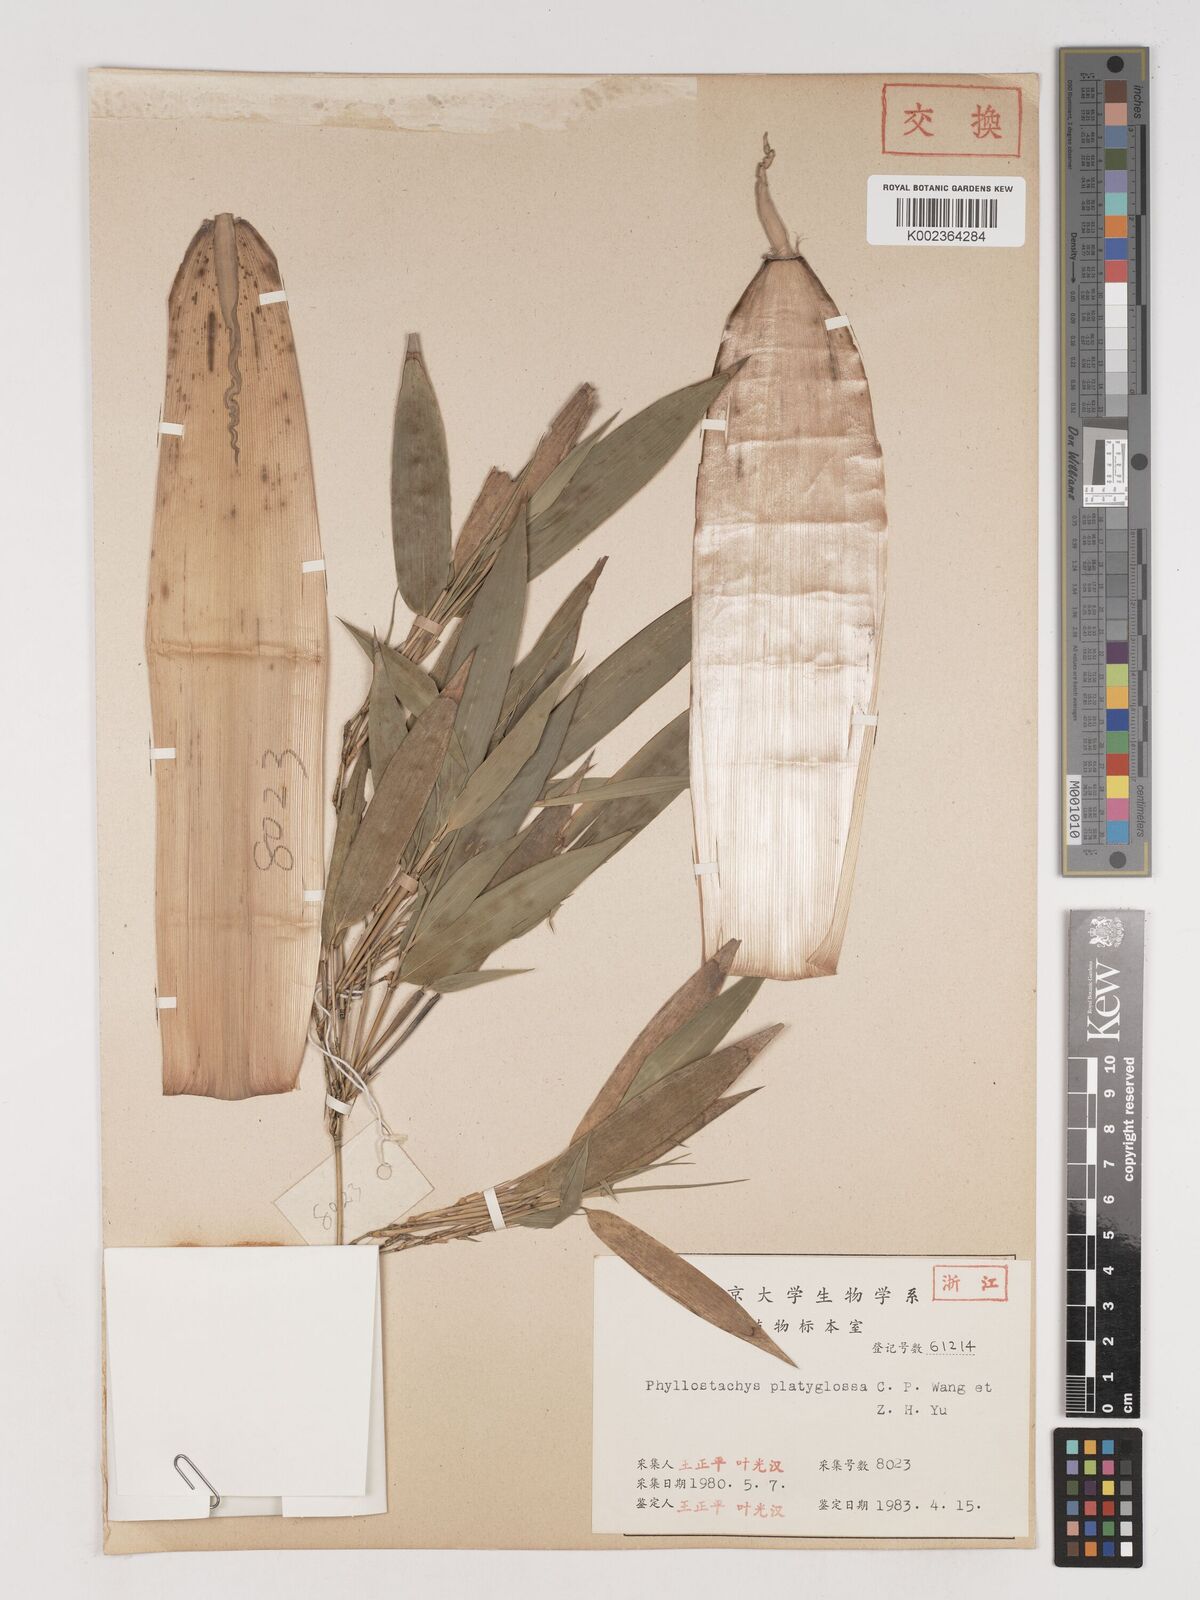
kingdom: Plantae
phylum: Tracheophyta
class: Liliopsida
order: Poales
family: Poaceae
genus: Phyllostachys
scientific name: Phyllostachys platyglossa
